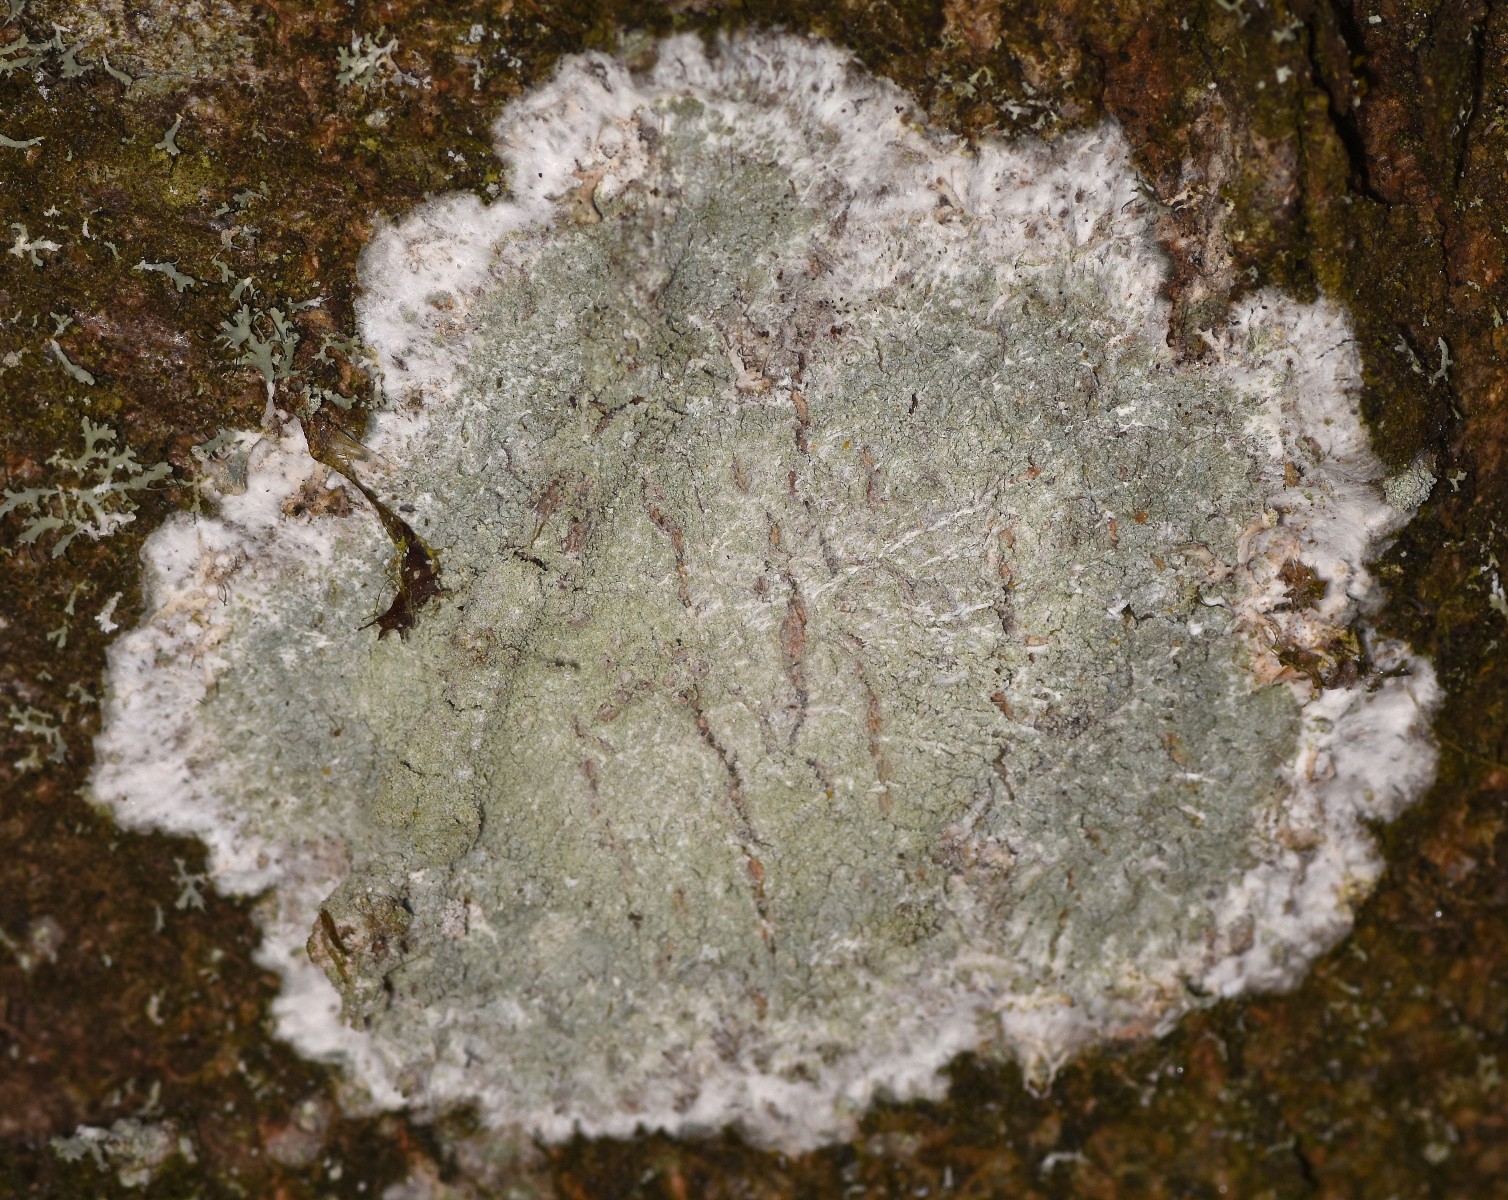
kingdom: Fungi
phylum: Ascomycota
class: Lecanoromycetes
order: Ostropales
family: Phlyctidaceae
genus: Phlyctis
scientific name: Phlyctis argena
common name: almindelig sølvlav
